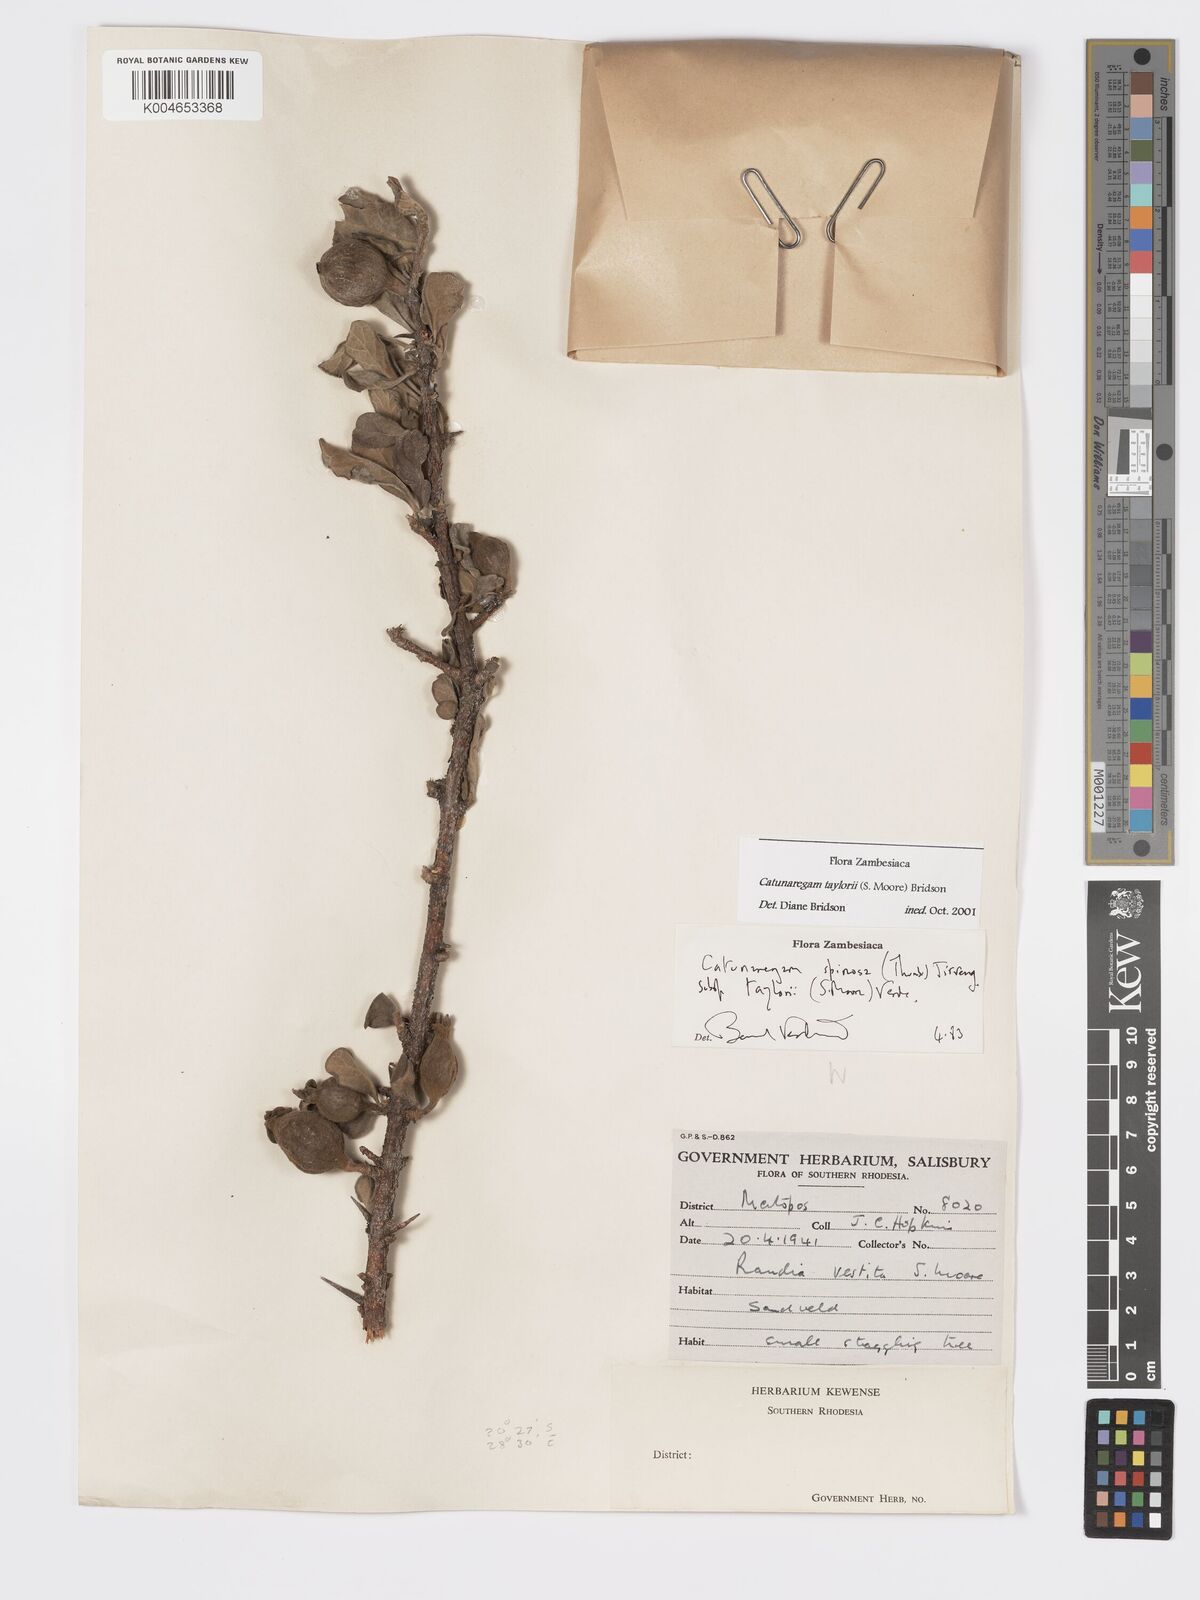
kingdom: Plantae
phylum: Tracheophyta
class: Magnoliopsida
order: Gentianales
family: Rubiaceae
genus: Catunaregam
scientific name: Catunaregam
